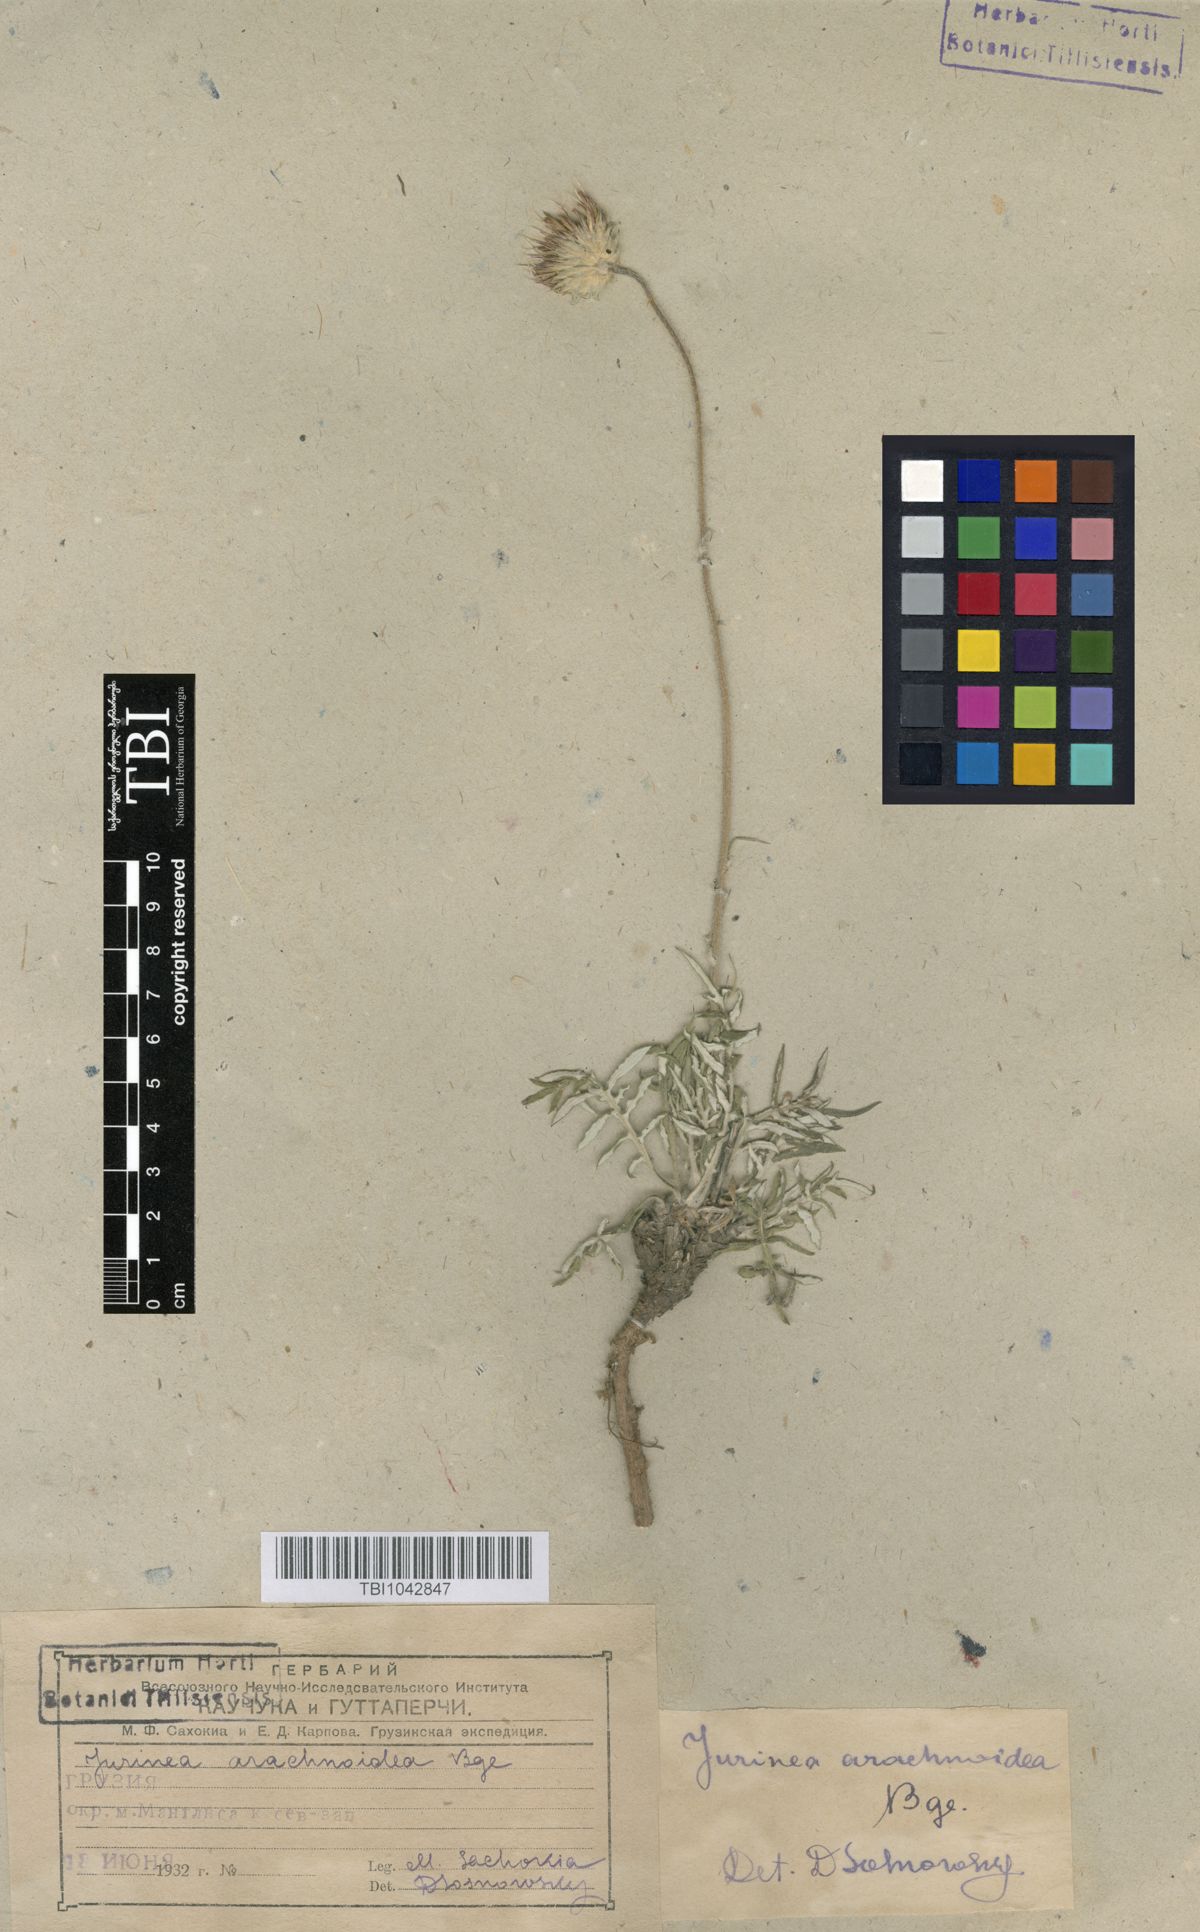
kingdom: Plantae
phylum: Tracheophyta
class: Magnoliopsida
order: Asterales
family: Asteraceae
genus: Jurinea
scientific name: Jurinea blanda
